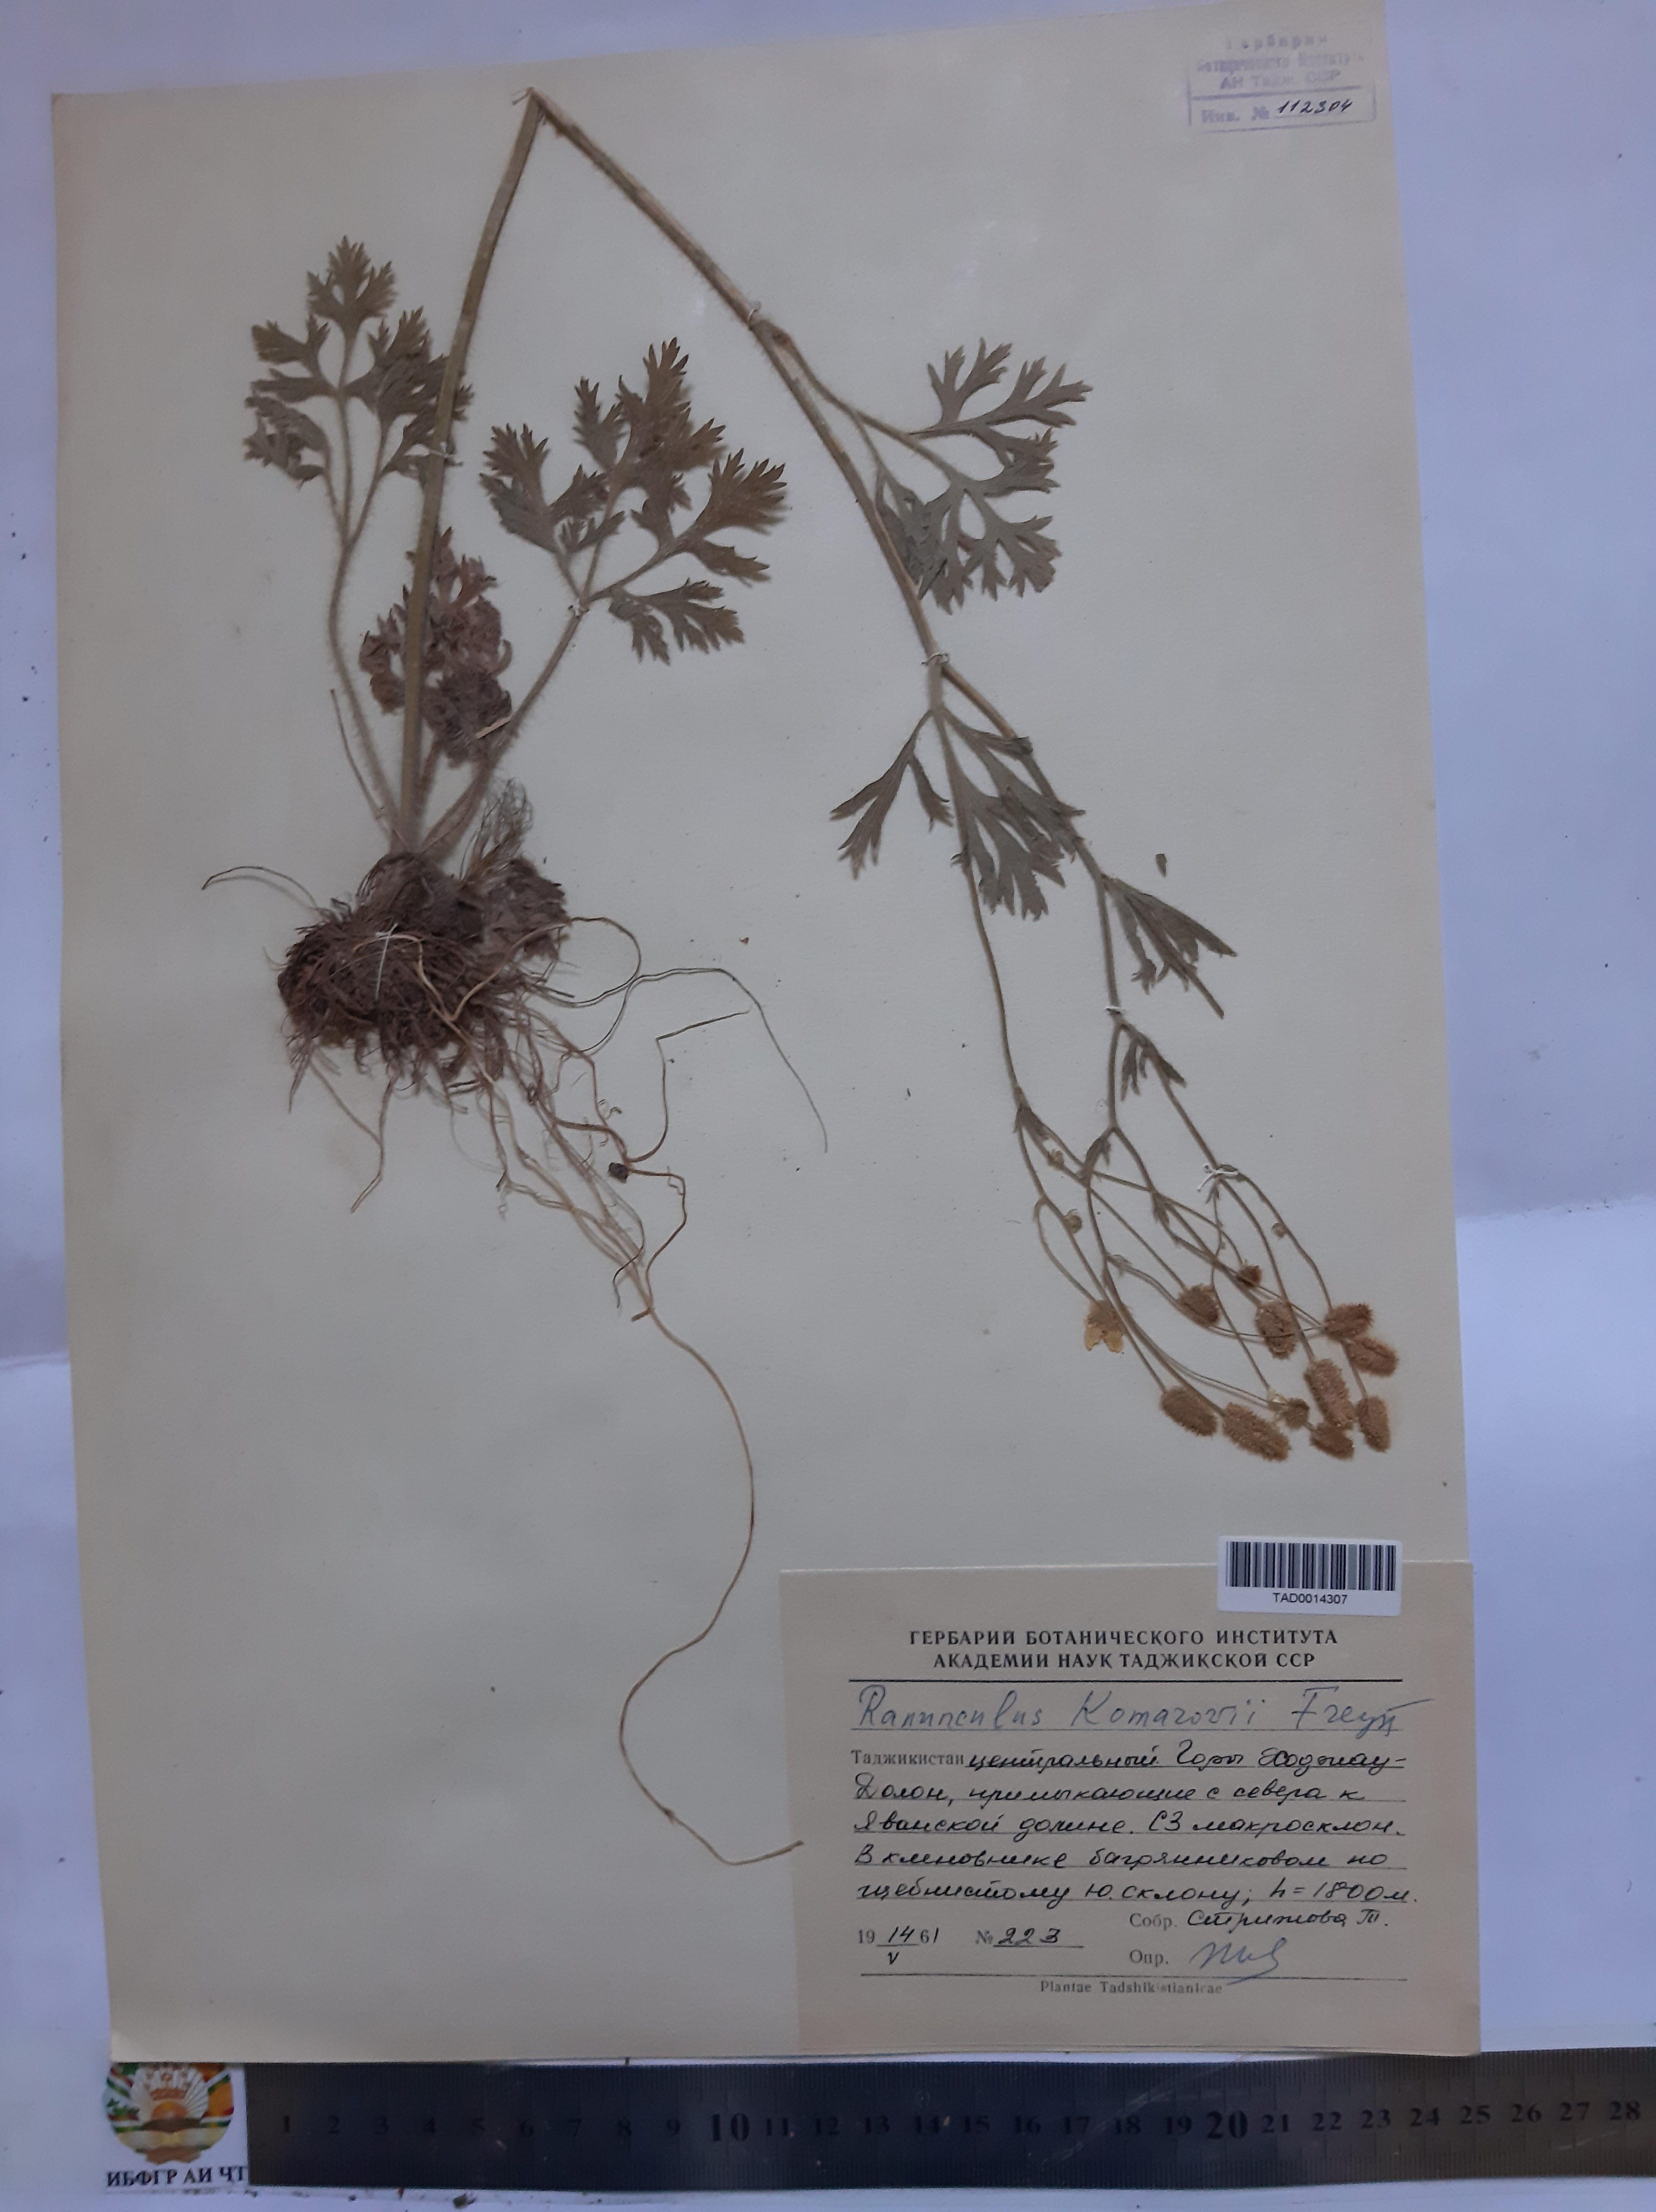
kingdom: Plantae
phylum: Tracheophyta
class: Magnoliopsida
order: Ranunculales
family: Ranunculaceae
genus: Ranunculus
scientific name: Ranunculus komarovii
